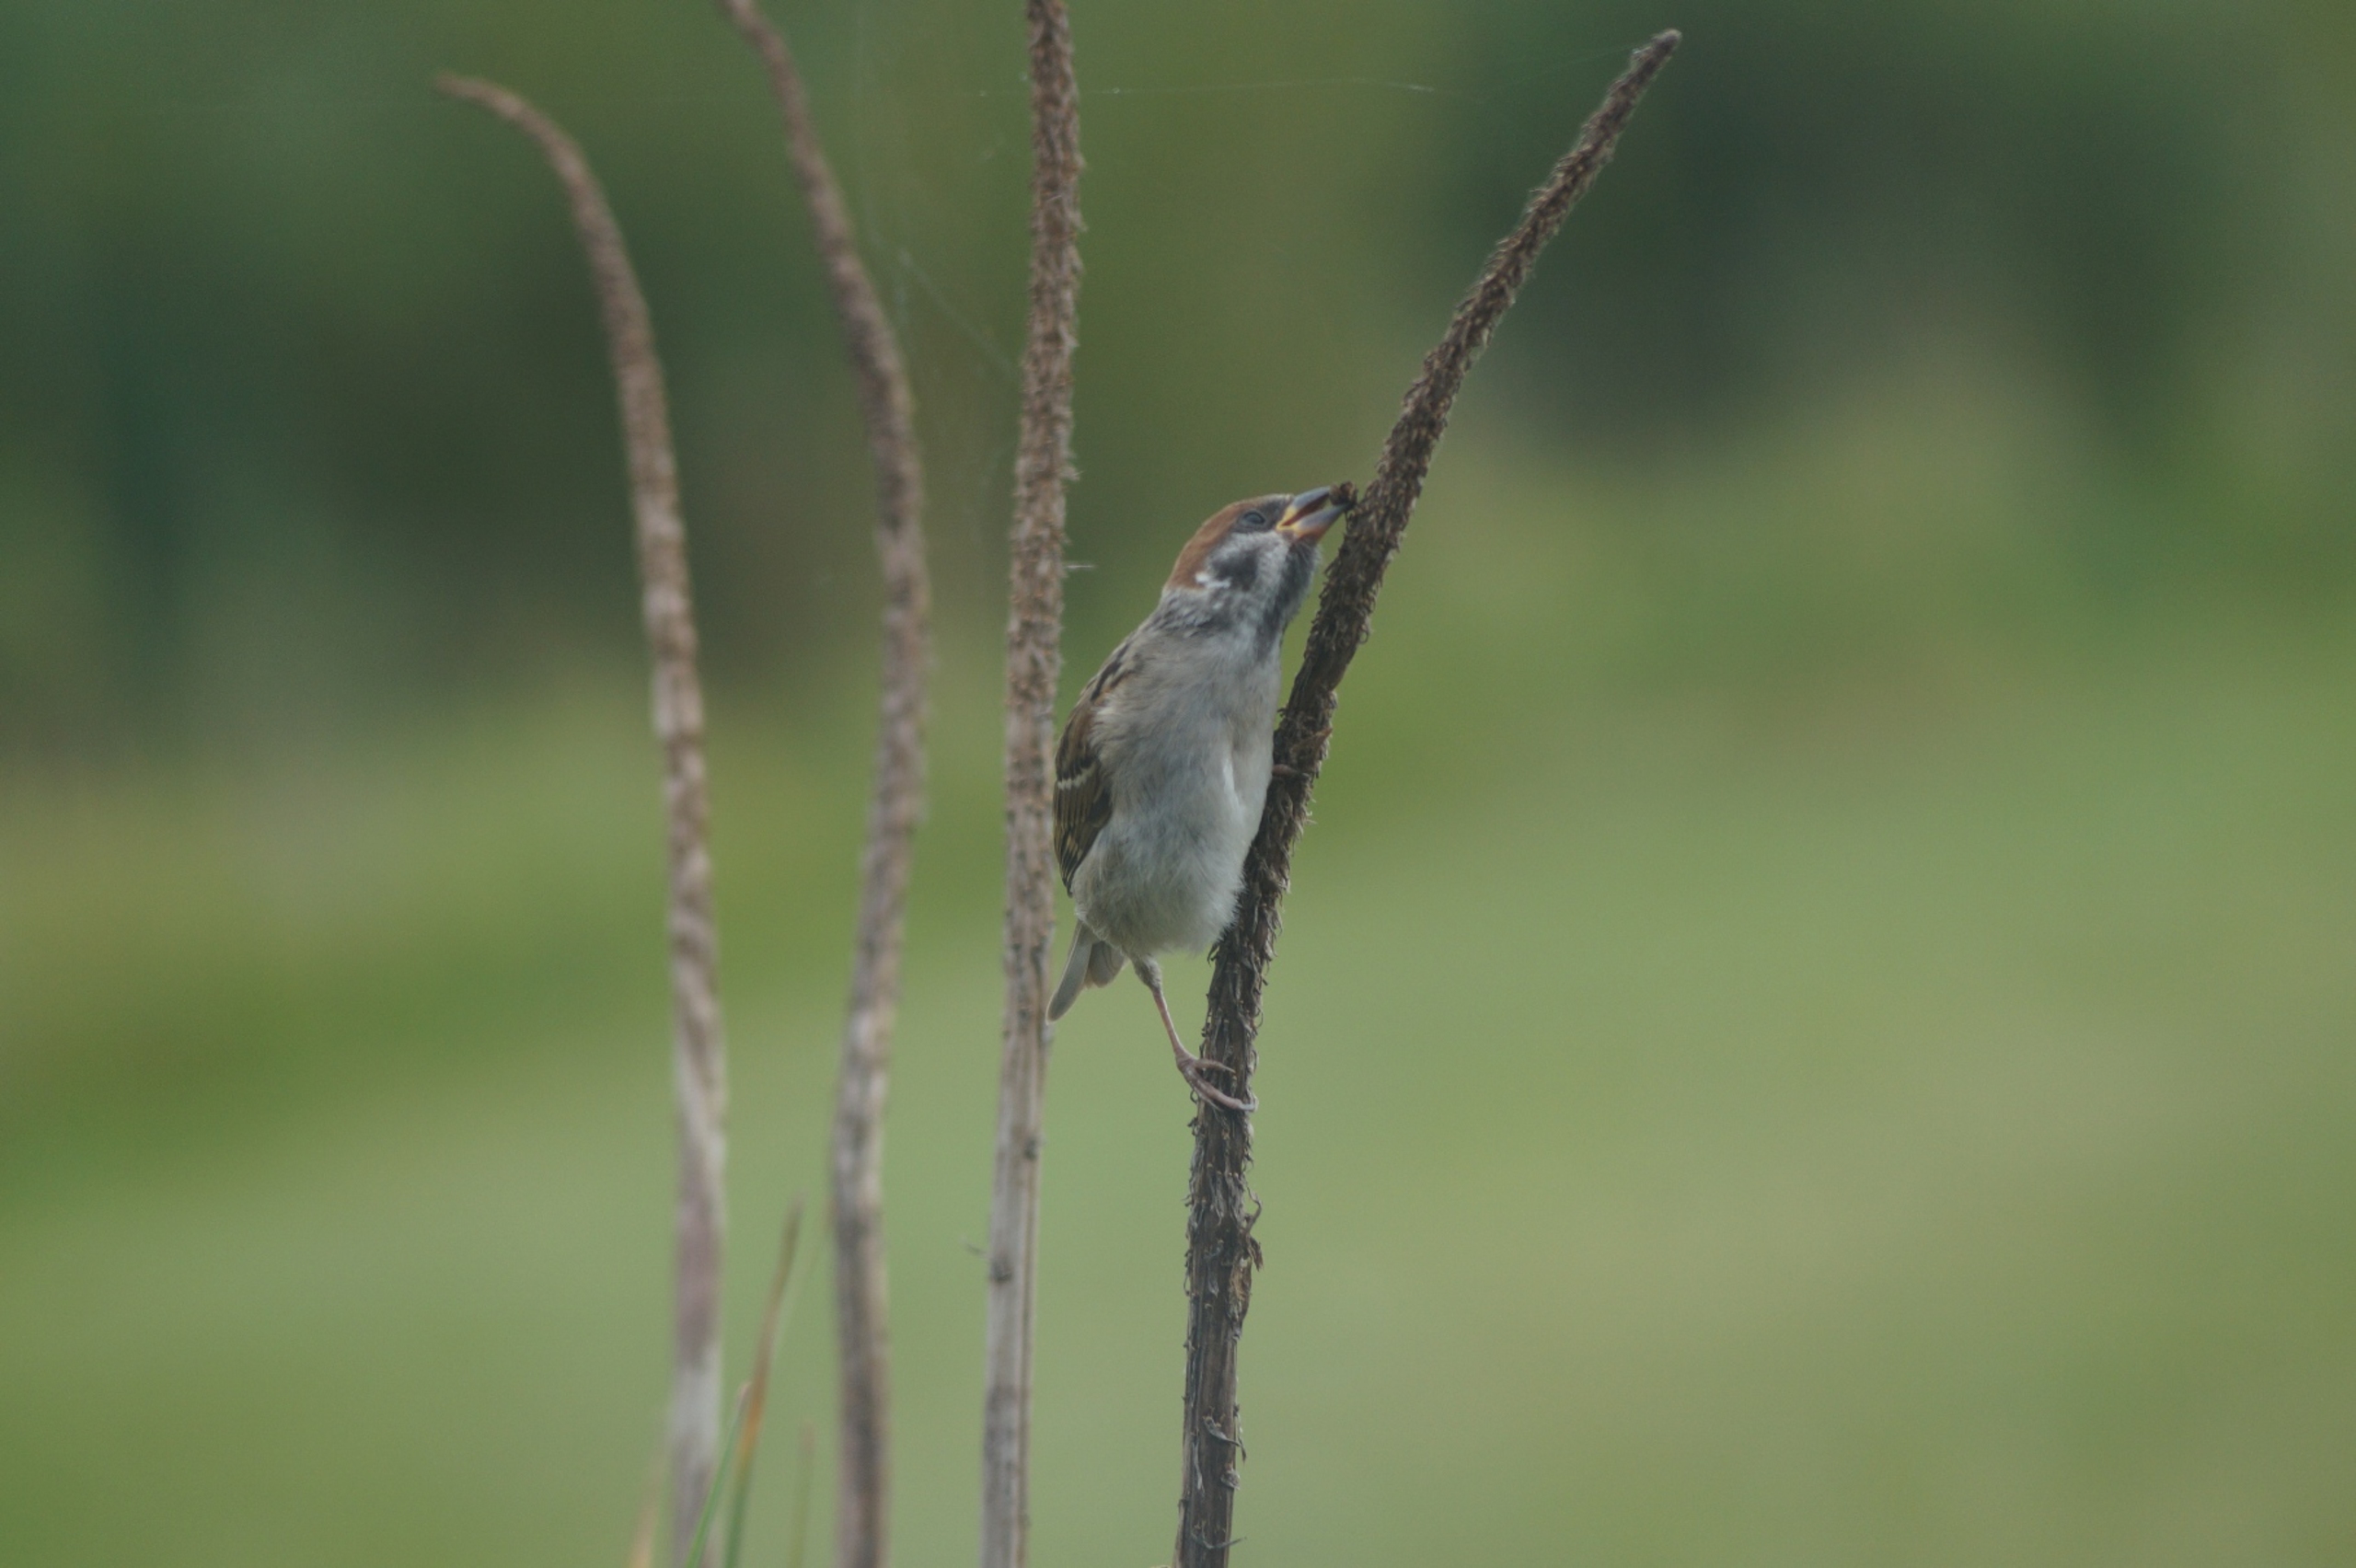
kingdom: Animalia
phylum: Chordata
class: Aves
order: Passeriformes
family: Passeridae
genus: Passer
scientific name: Passer montanus
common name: Skovspurv
